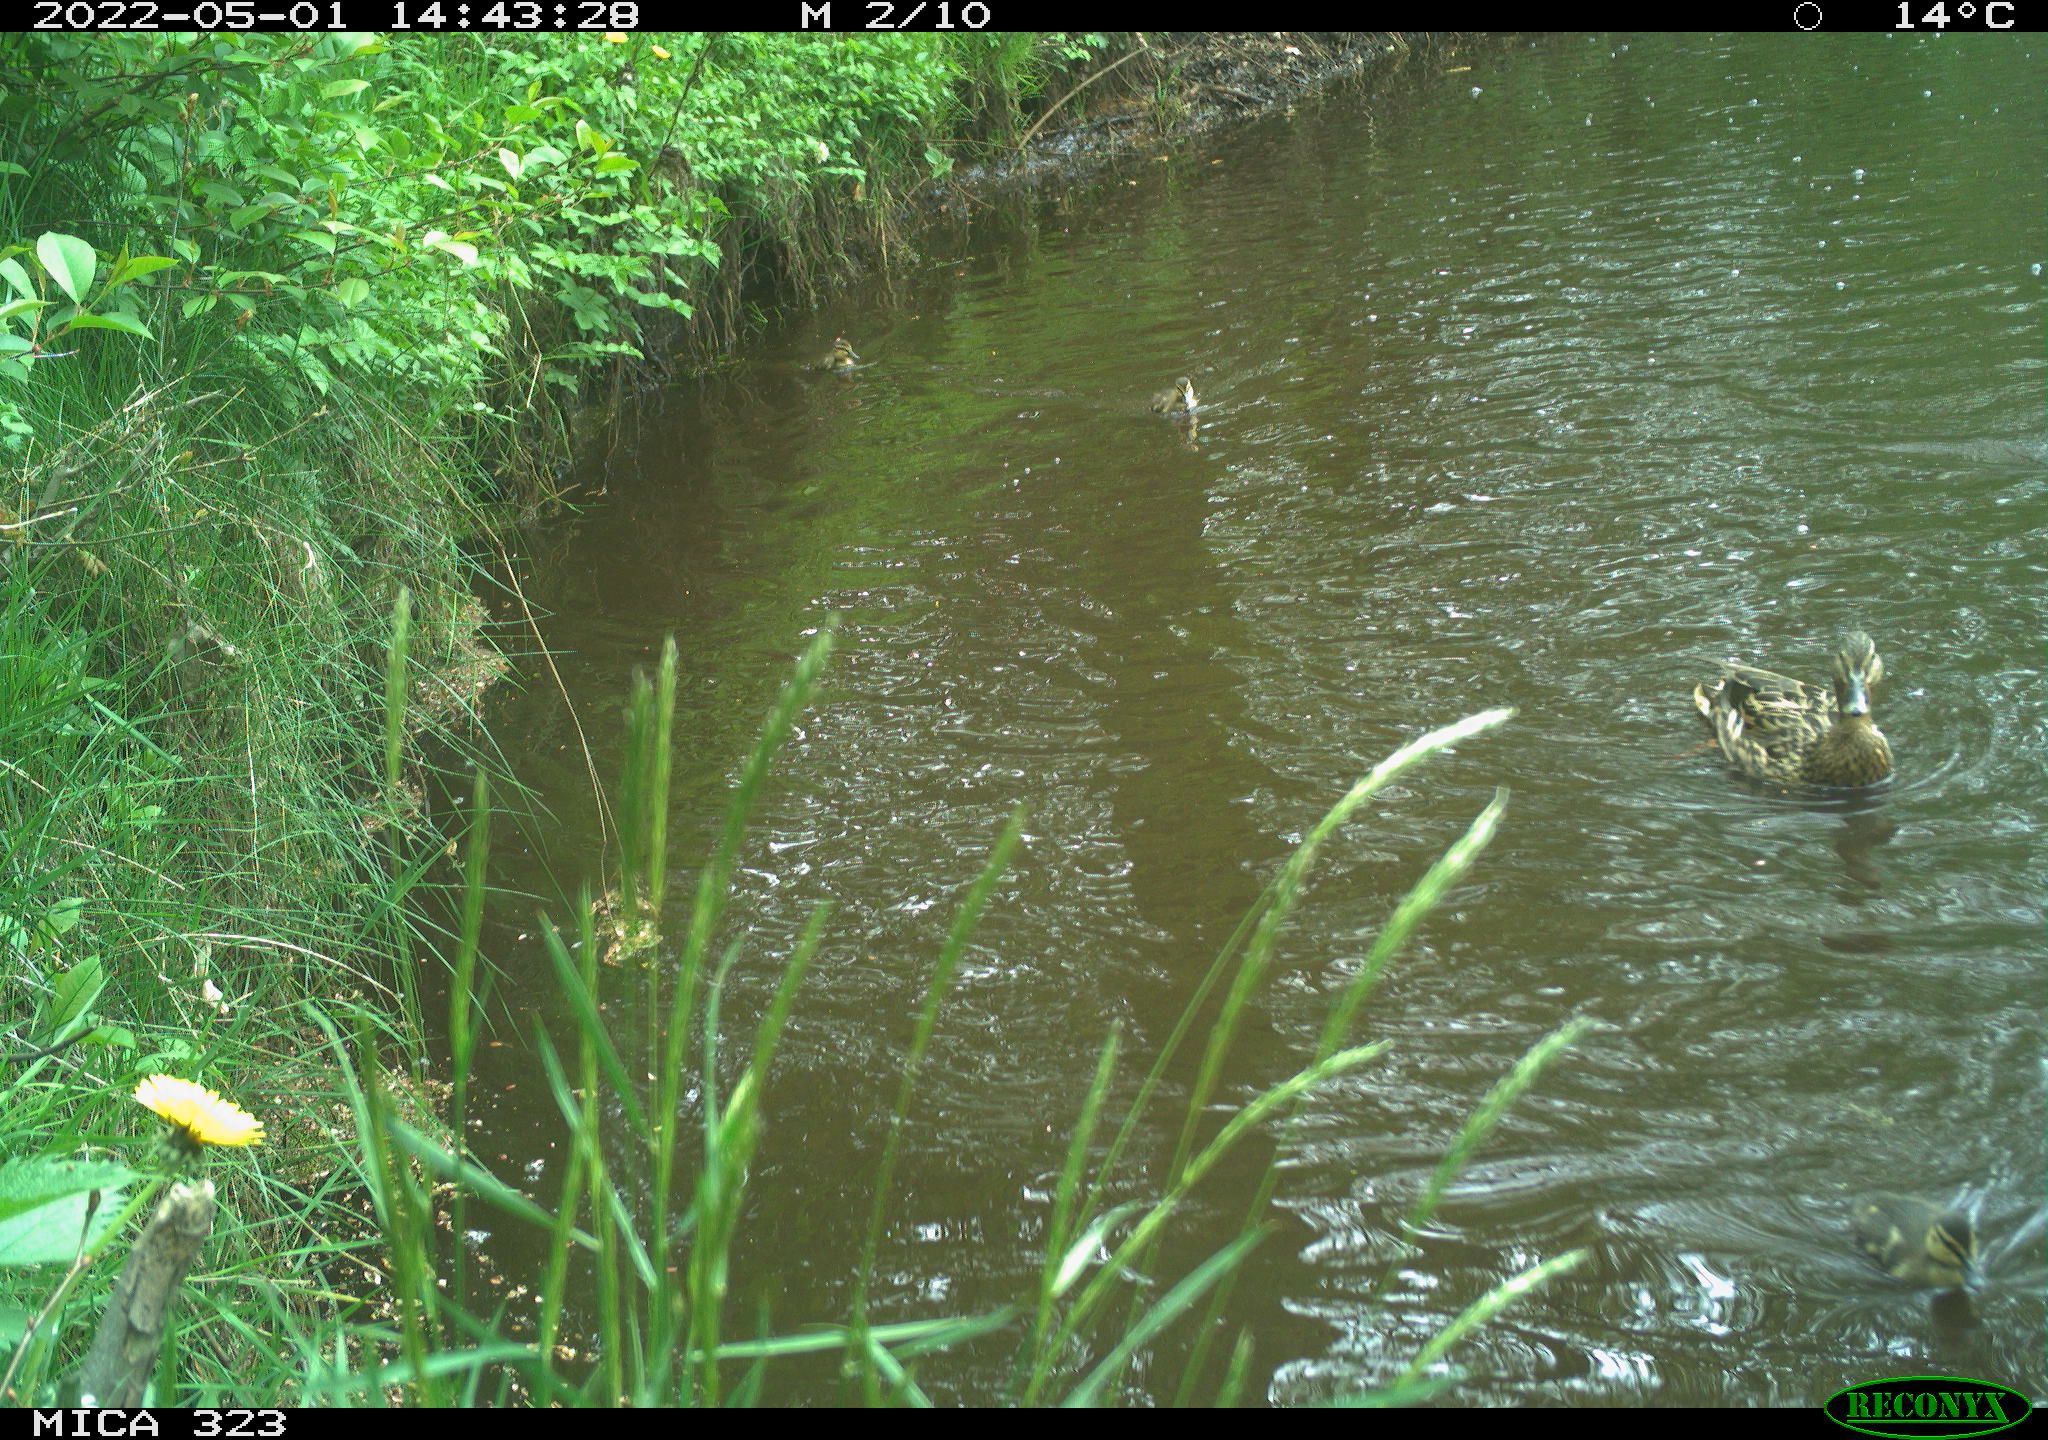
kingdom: Animalia
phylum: Chordata
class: Aves
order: Anseriformes
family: Anatidae
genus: Anas
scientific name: Anas platyrhynchos
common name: Mallard
